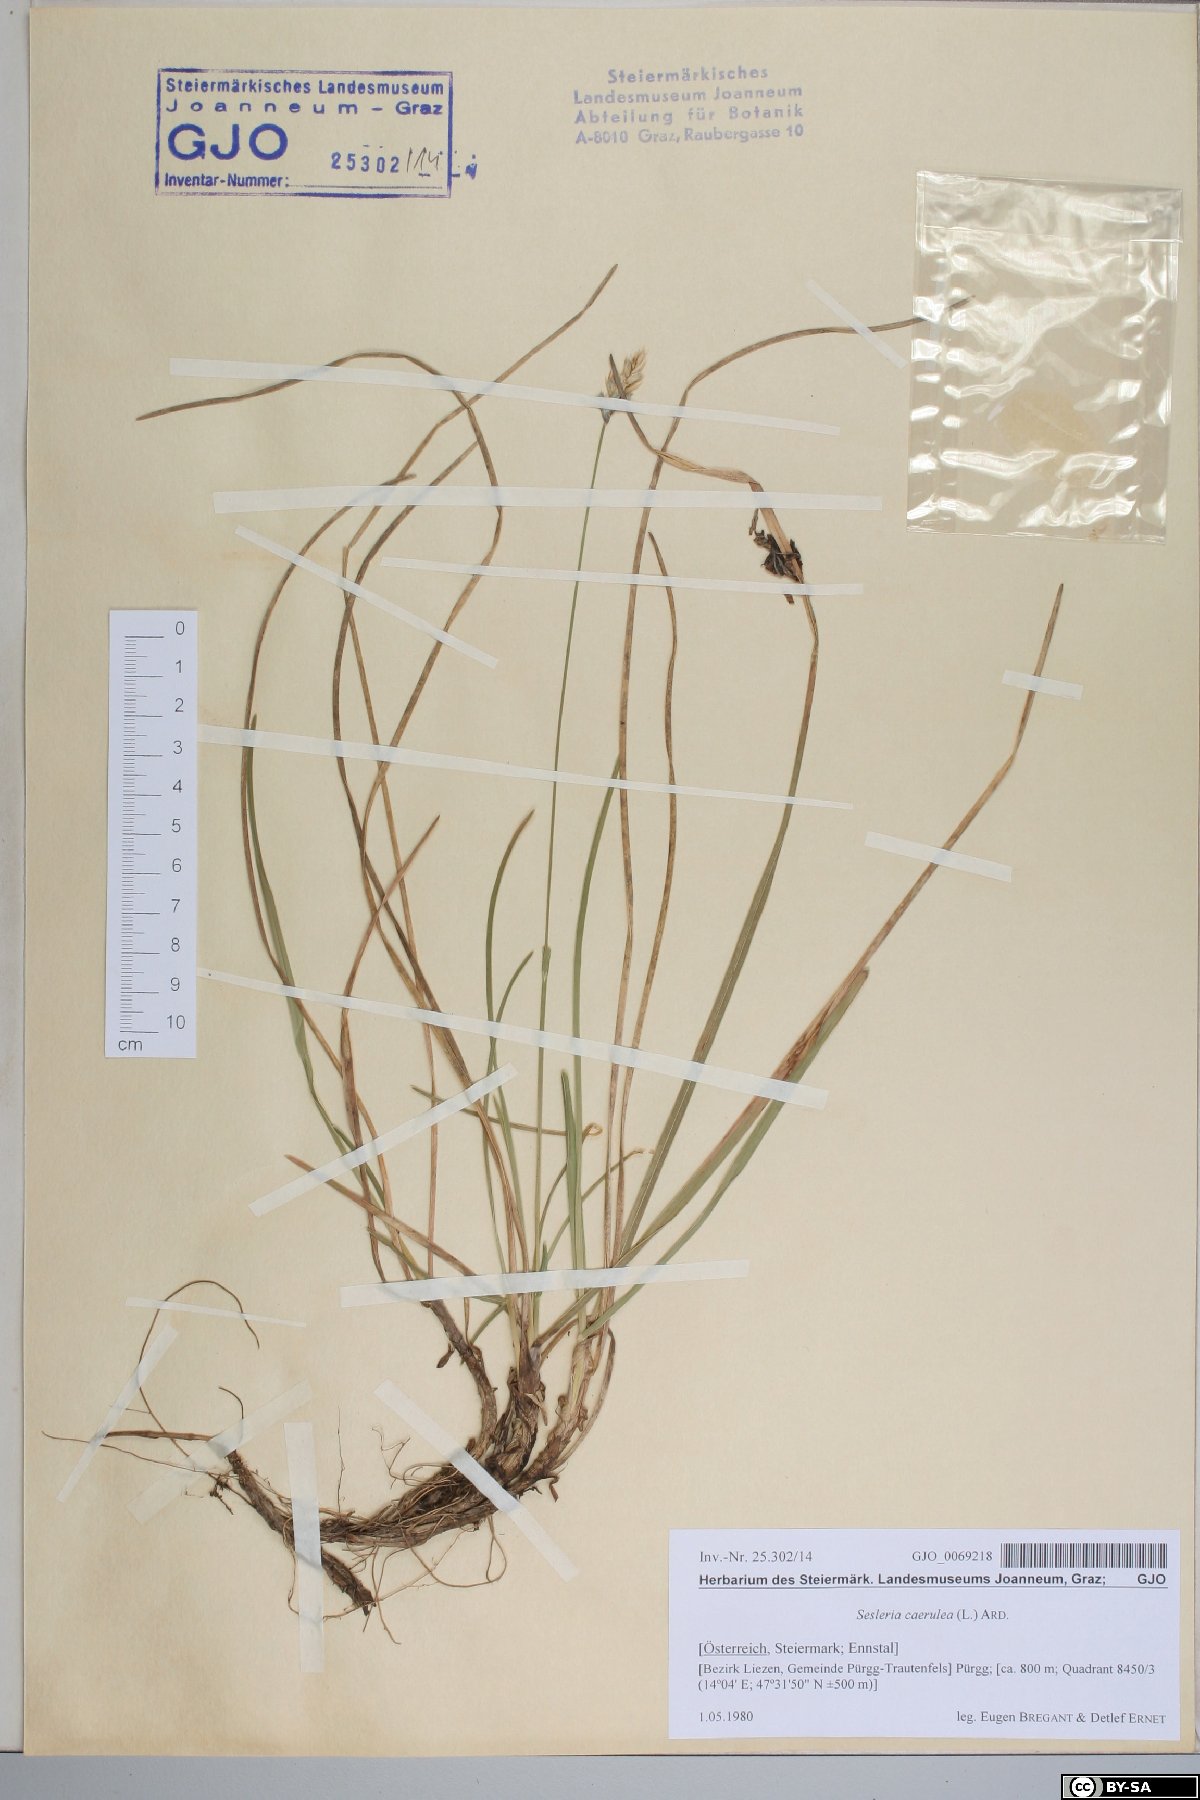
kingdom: Plantae
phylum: Tracheophyta
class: Liliopsida
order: Poales
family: Poaceae
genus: Sesleria
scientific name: Sesleria caerulea
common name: Blue moor-grass
